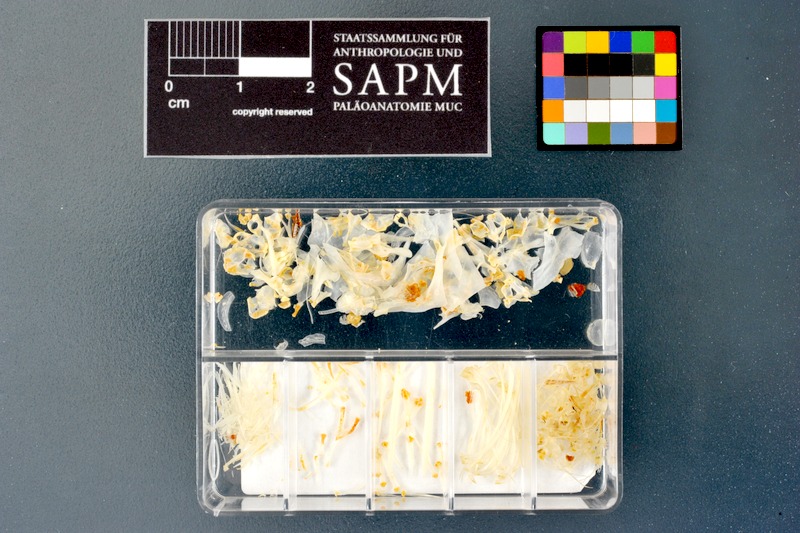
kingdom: Animalia
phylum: Chordata
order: Cypriniformes
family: Cyprinidae
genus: Acanthobrama
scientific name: Acanthobrama marmid
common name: Mesopotamian bream
